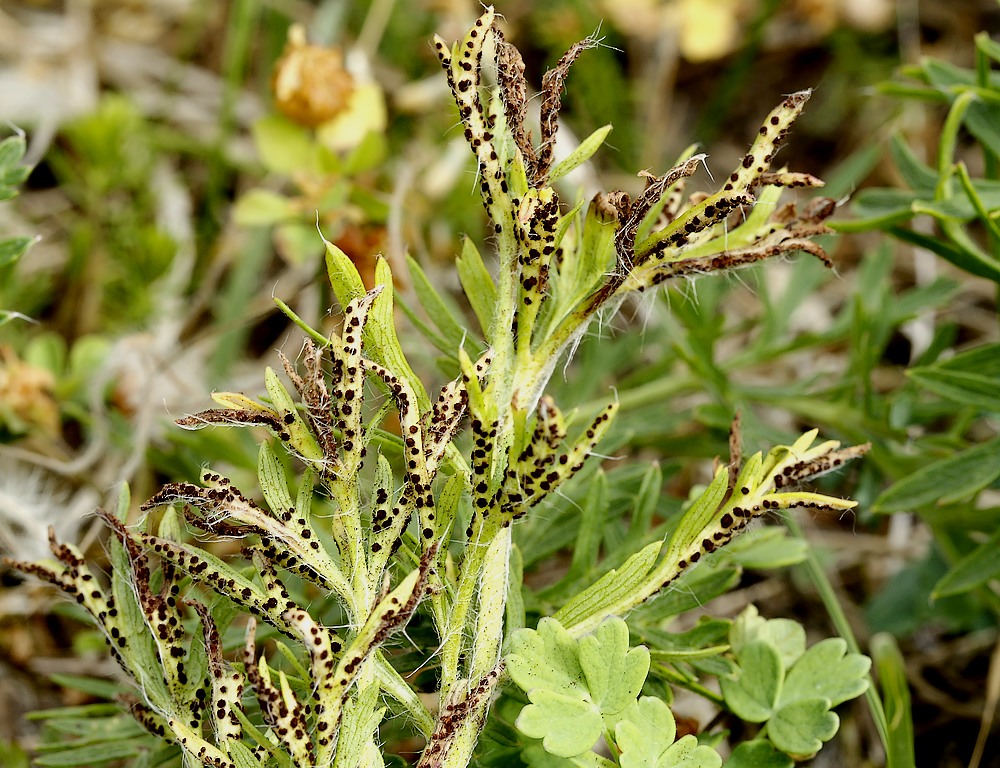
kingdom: Fungi
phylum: Basidiomycota
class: Pucciniomycetes
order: Pucciniales
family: Tranzscheliaceae
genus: Tranzschelia
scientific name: Tranzschelia pulsatillae
